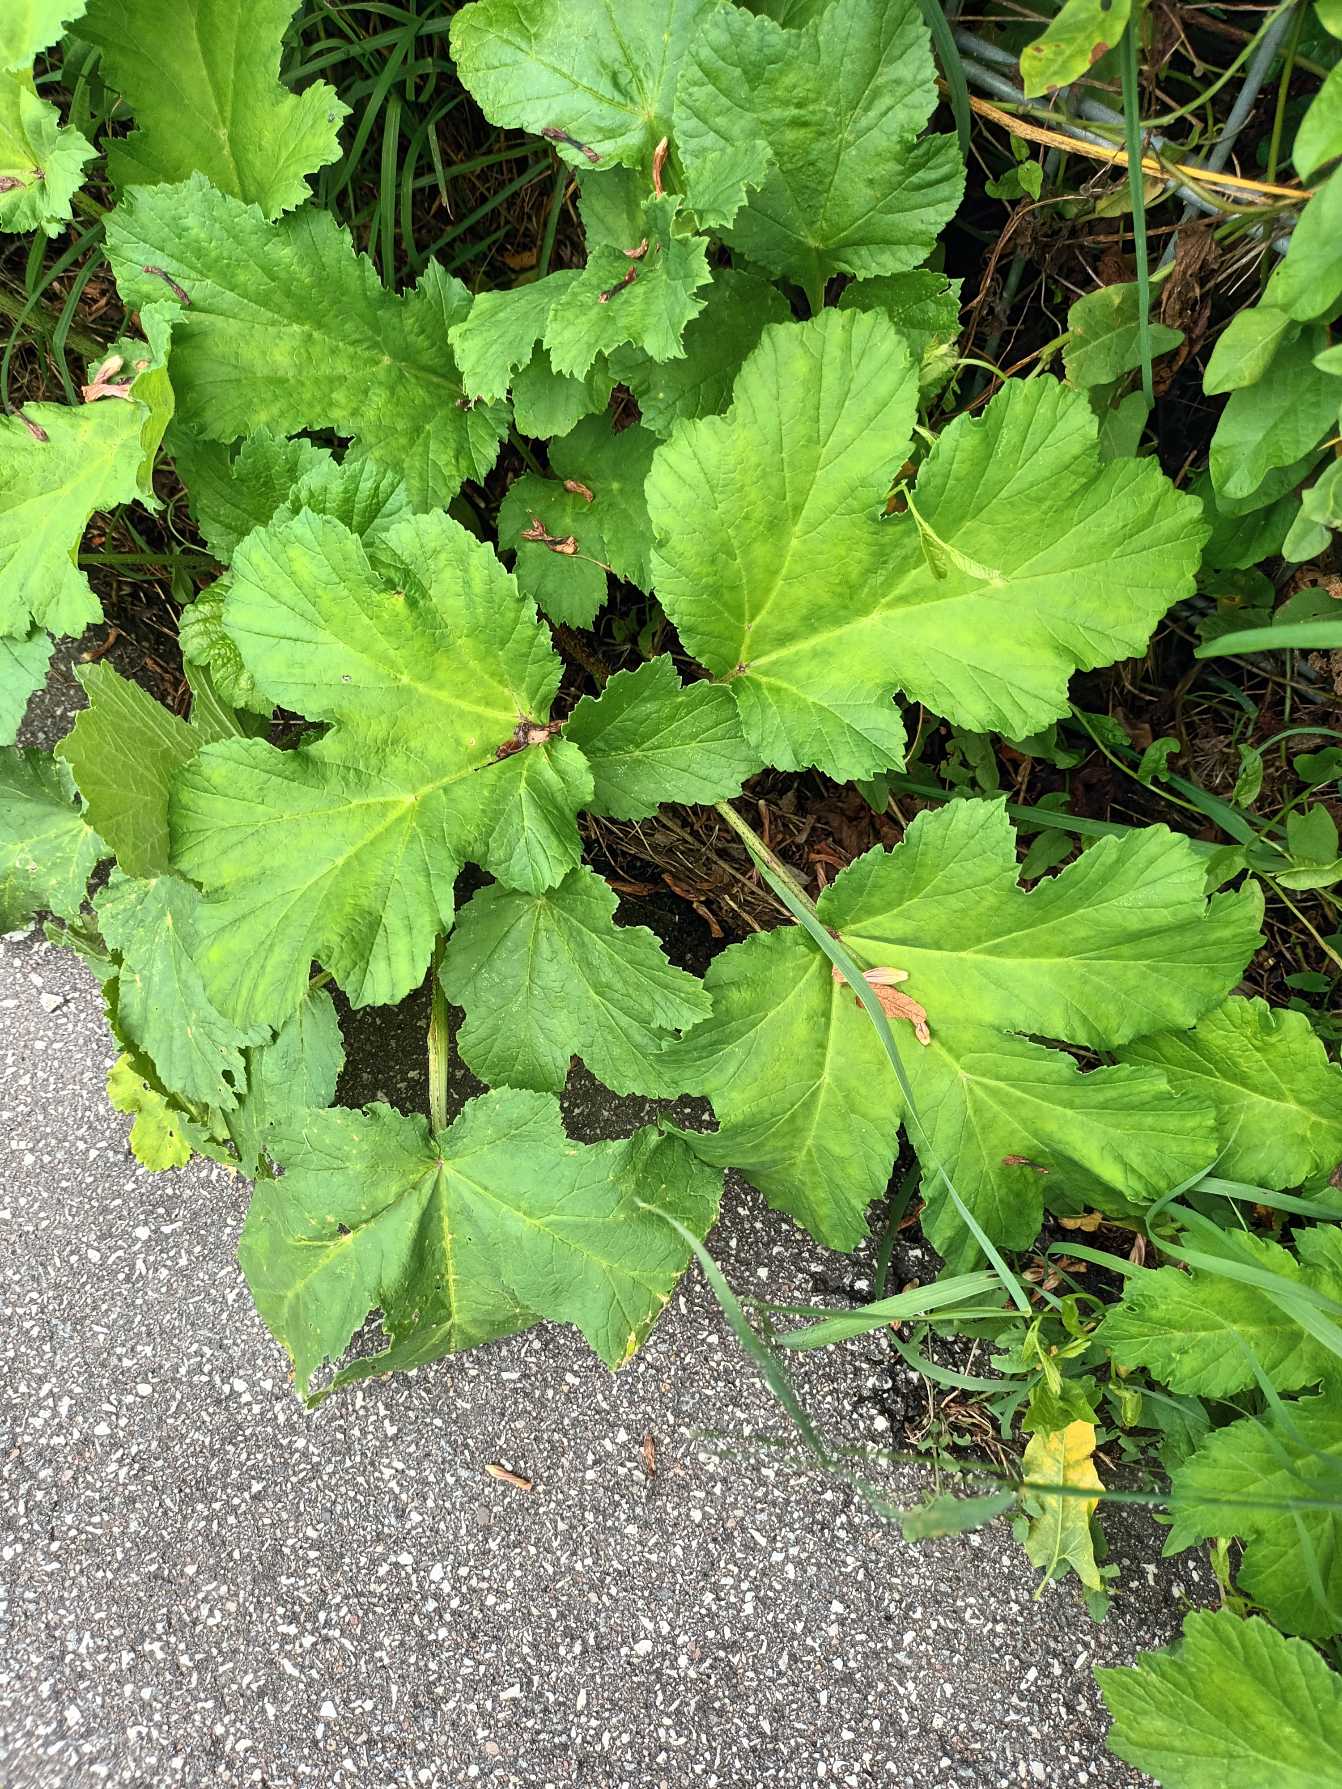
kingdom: Plantae
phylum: Tracheophyta
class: Magnoliopsida
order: Apiales
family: Apiaceae
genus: Heracleum
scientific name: Heracleum sosnowskyi
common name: Rundlobet bjørneklo
